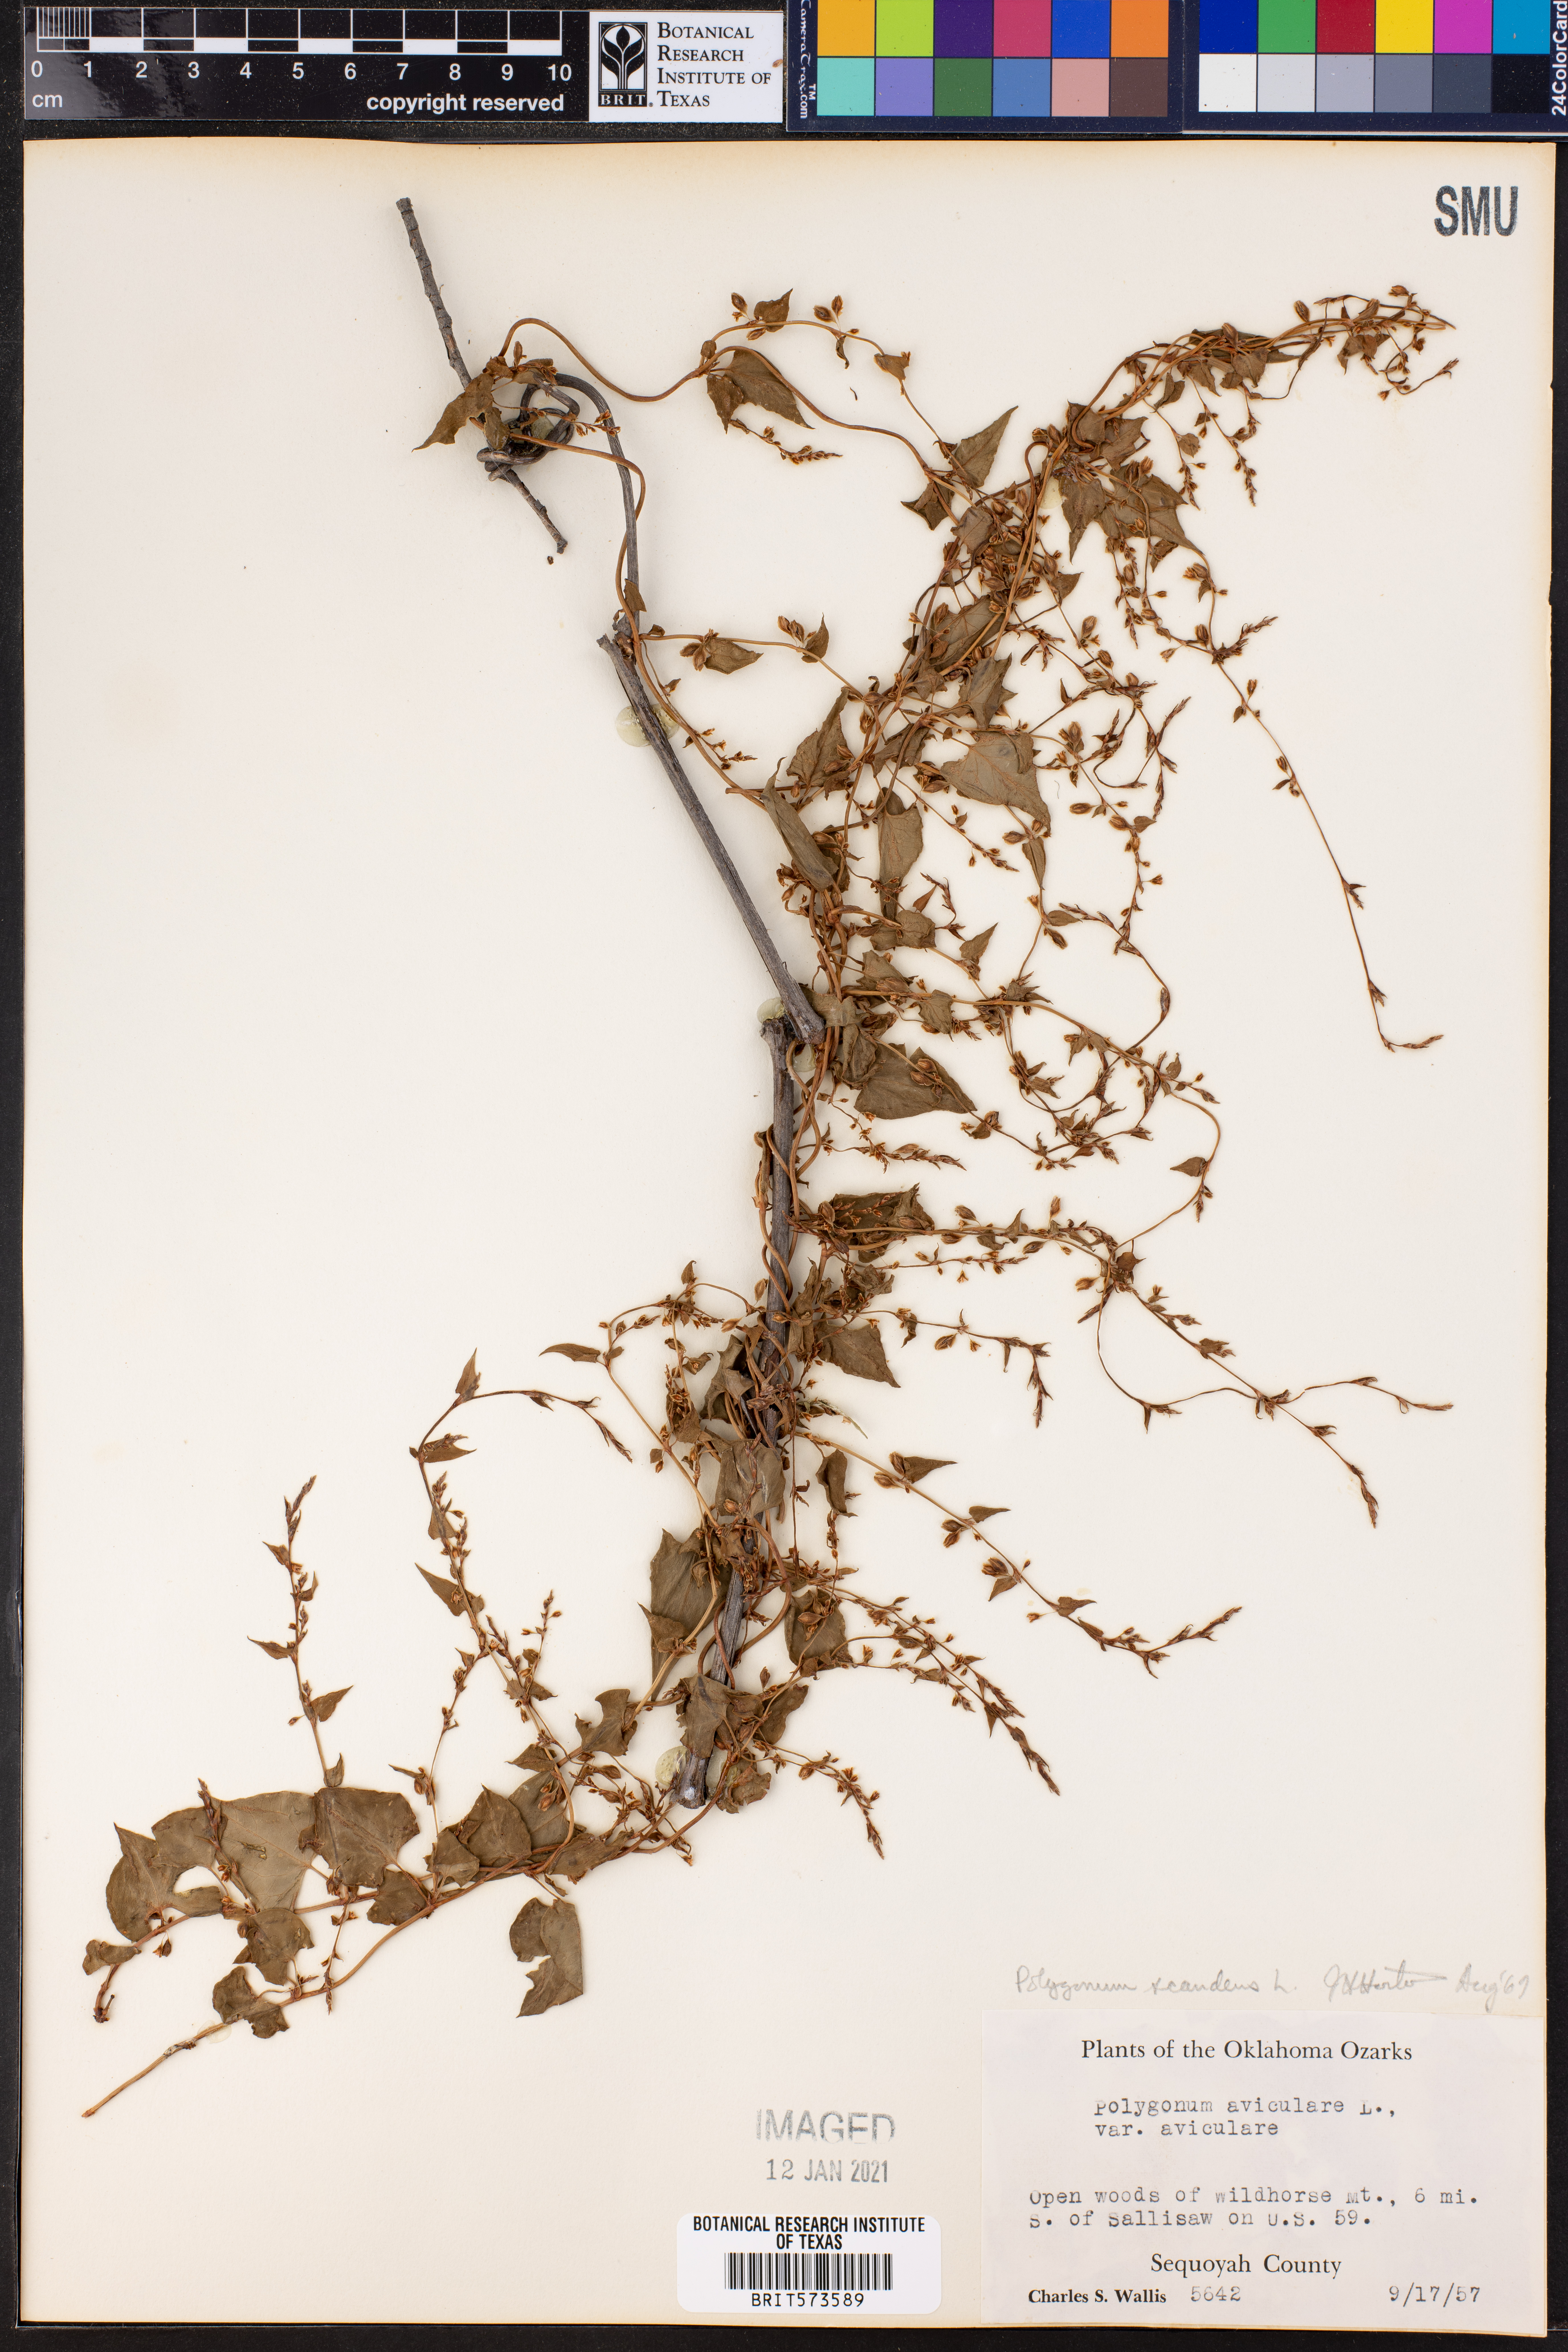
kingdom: Plantae
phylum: Tracheophyta
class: Magnoliopsida
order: Caryophyllales
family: Polygonaceae
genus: Fallopia
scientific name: Fallopia scandens
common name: Climbing false buckwheat
